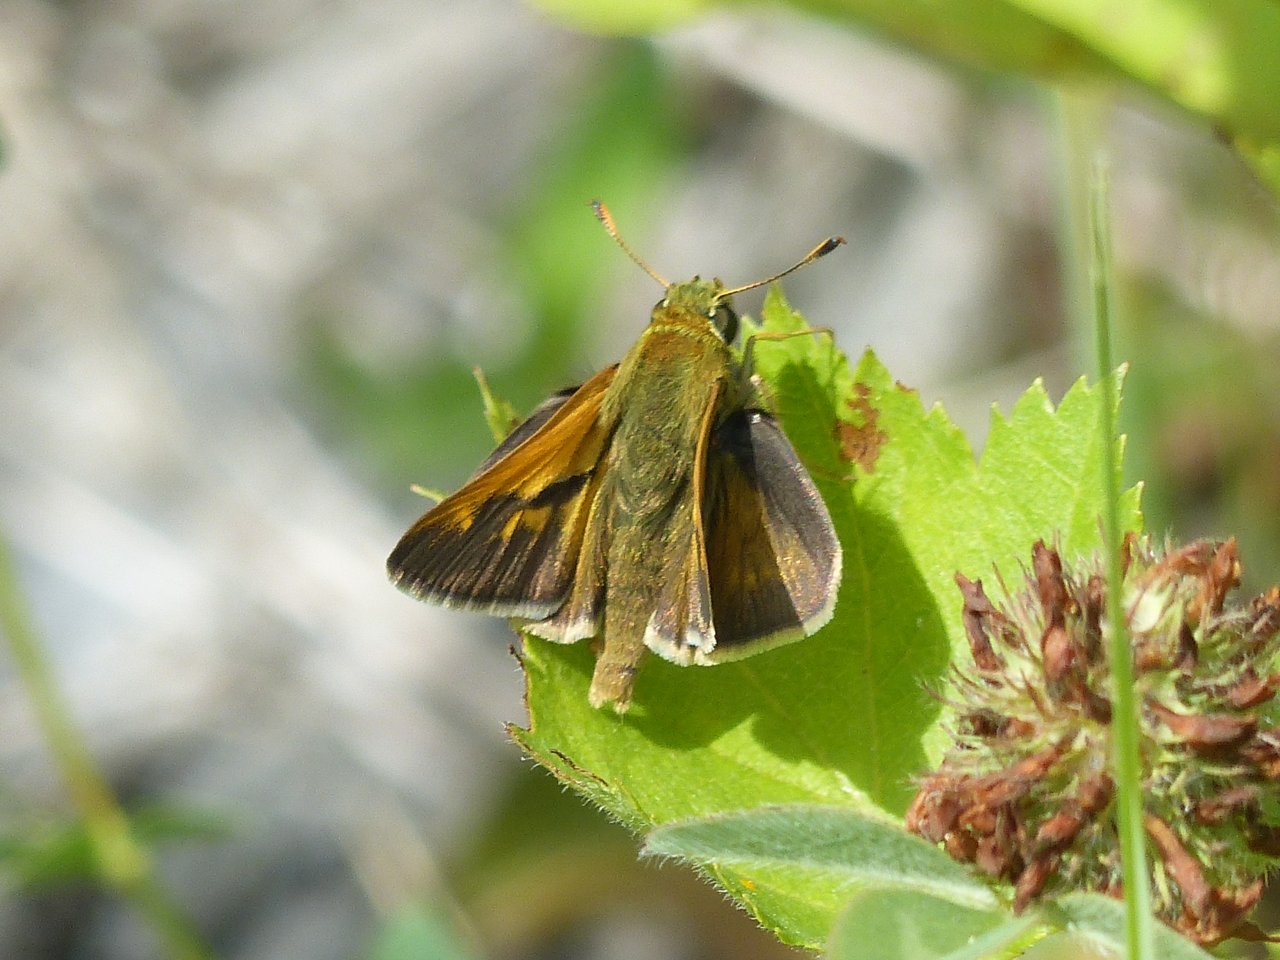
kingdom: Animalia
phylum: Arthropoda
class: Insecta
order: Lepidoptera
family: Hesperiidae
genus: Polites
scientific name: Polites
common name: Crossline Skipper
